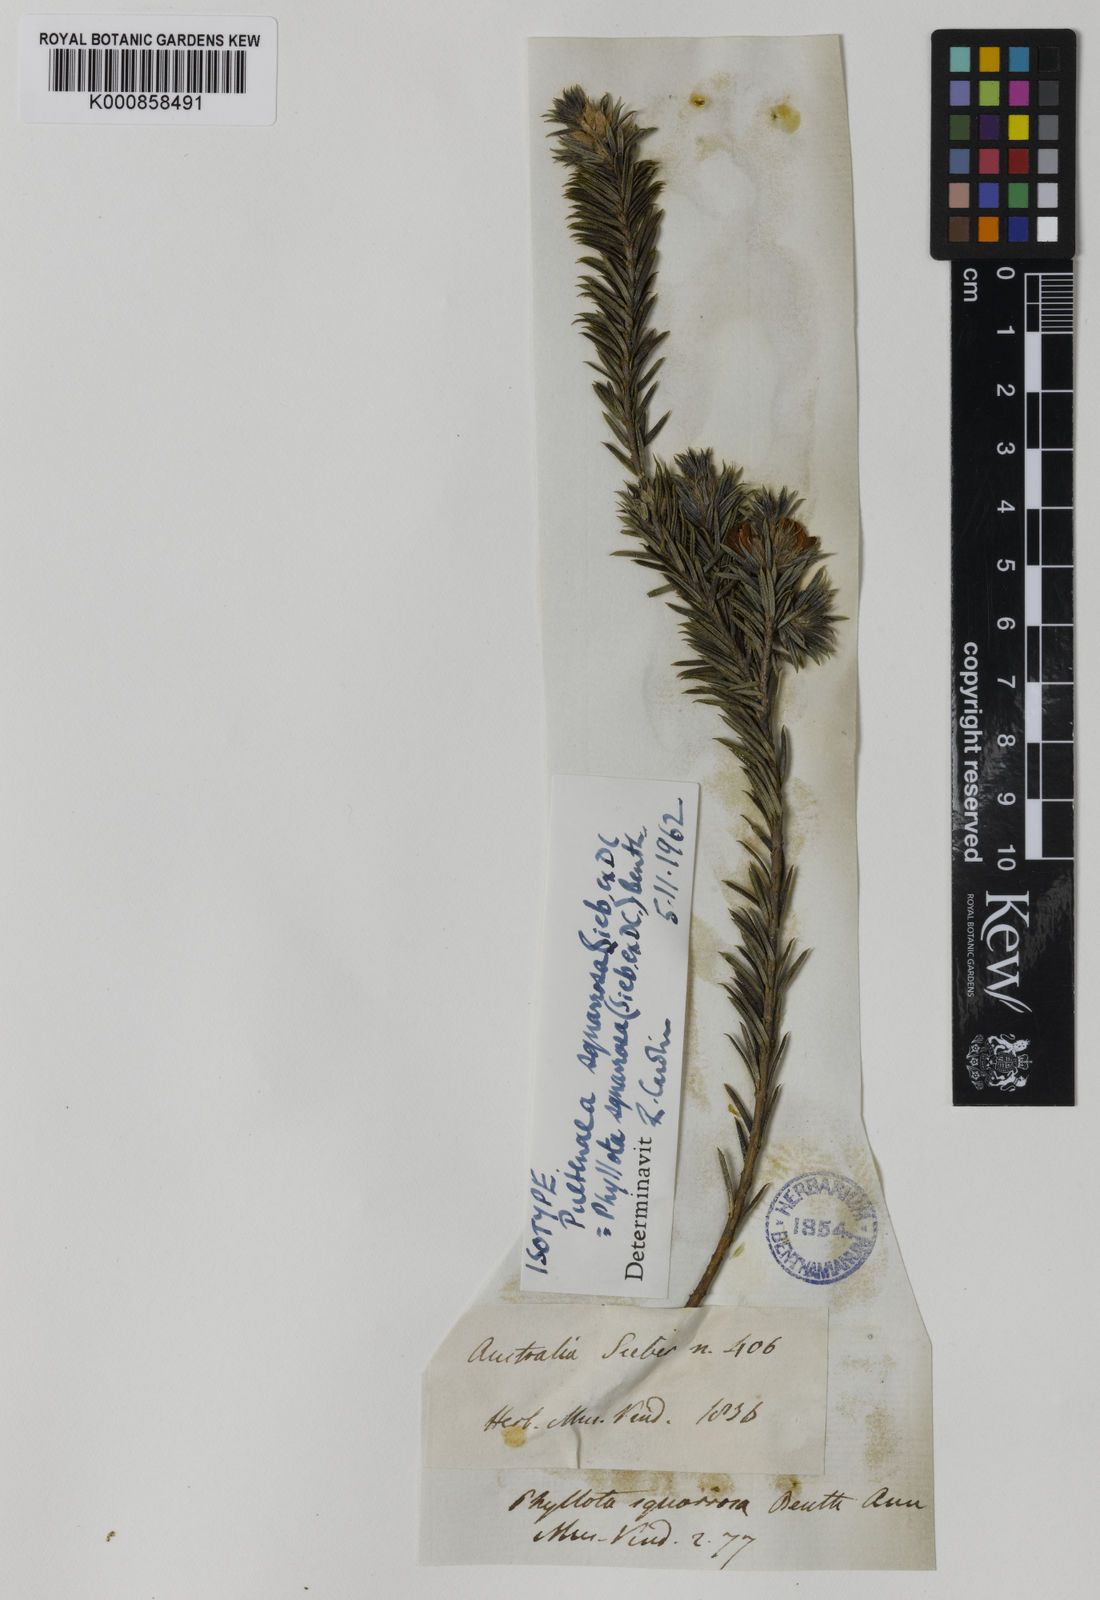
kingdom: Plantae
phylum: Tracheophyta
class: Magnoliopsida
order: Fabales
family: Fabaceae
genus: Phyllota
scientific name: Phyllota squarrosa
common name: Dense phyllota
